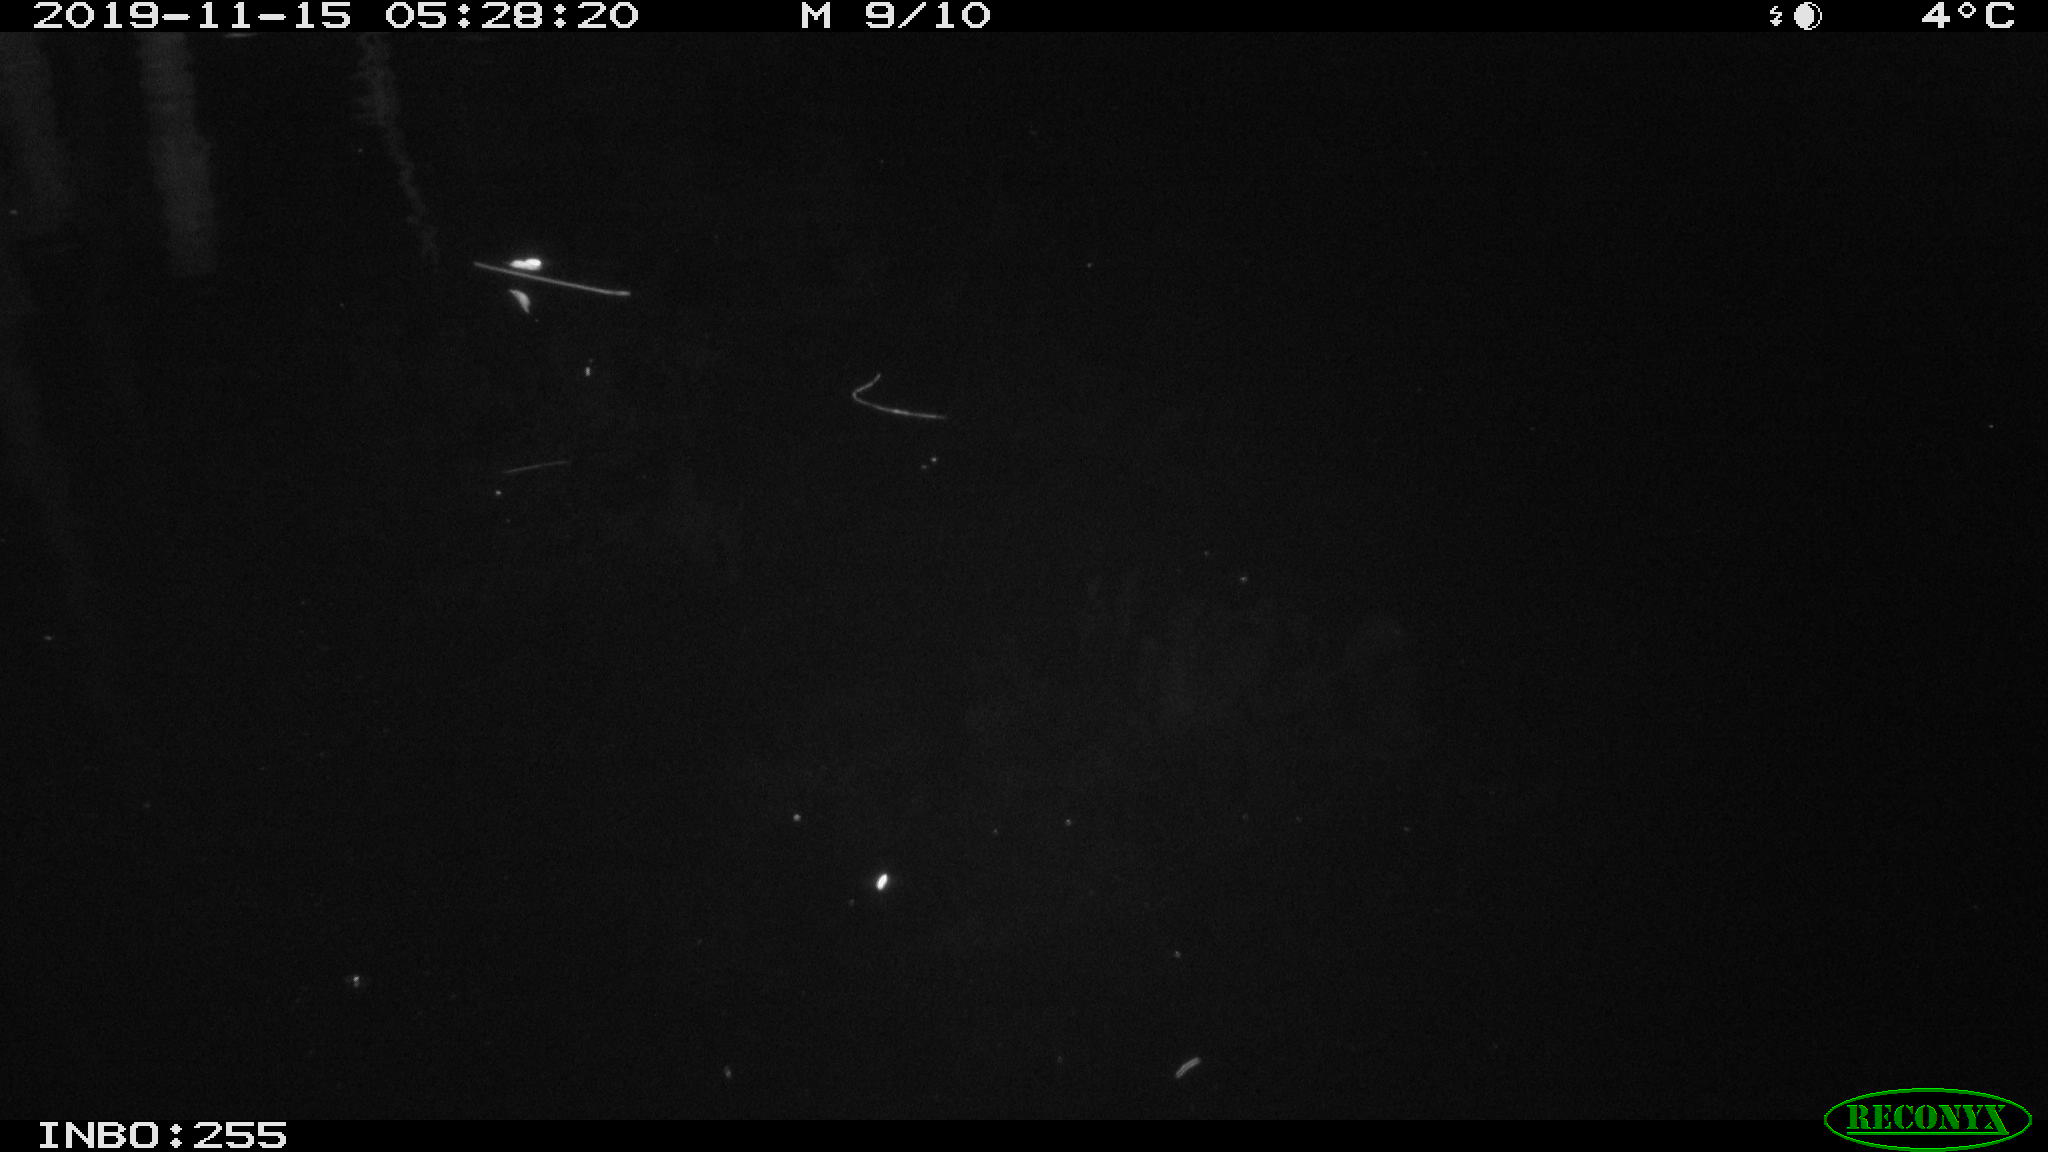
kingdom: Animalia
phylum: Chordata
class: Mammalia
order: Rodentia
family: Muridae
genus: Rattus
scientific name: Rattus norvegicus
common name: Brown rat
